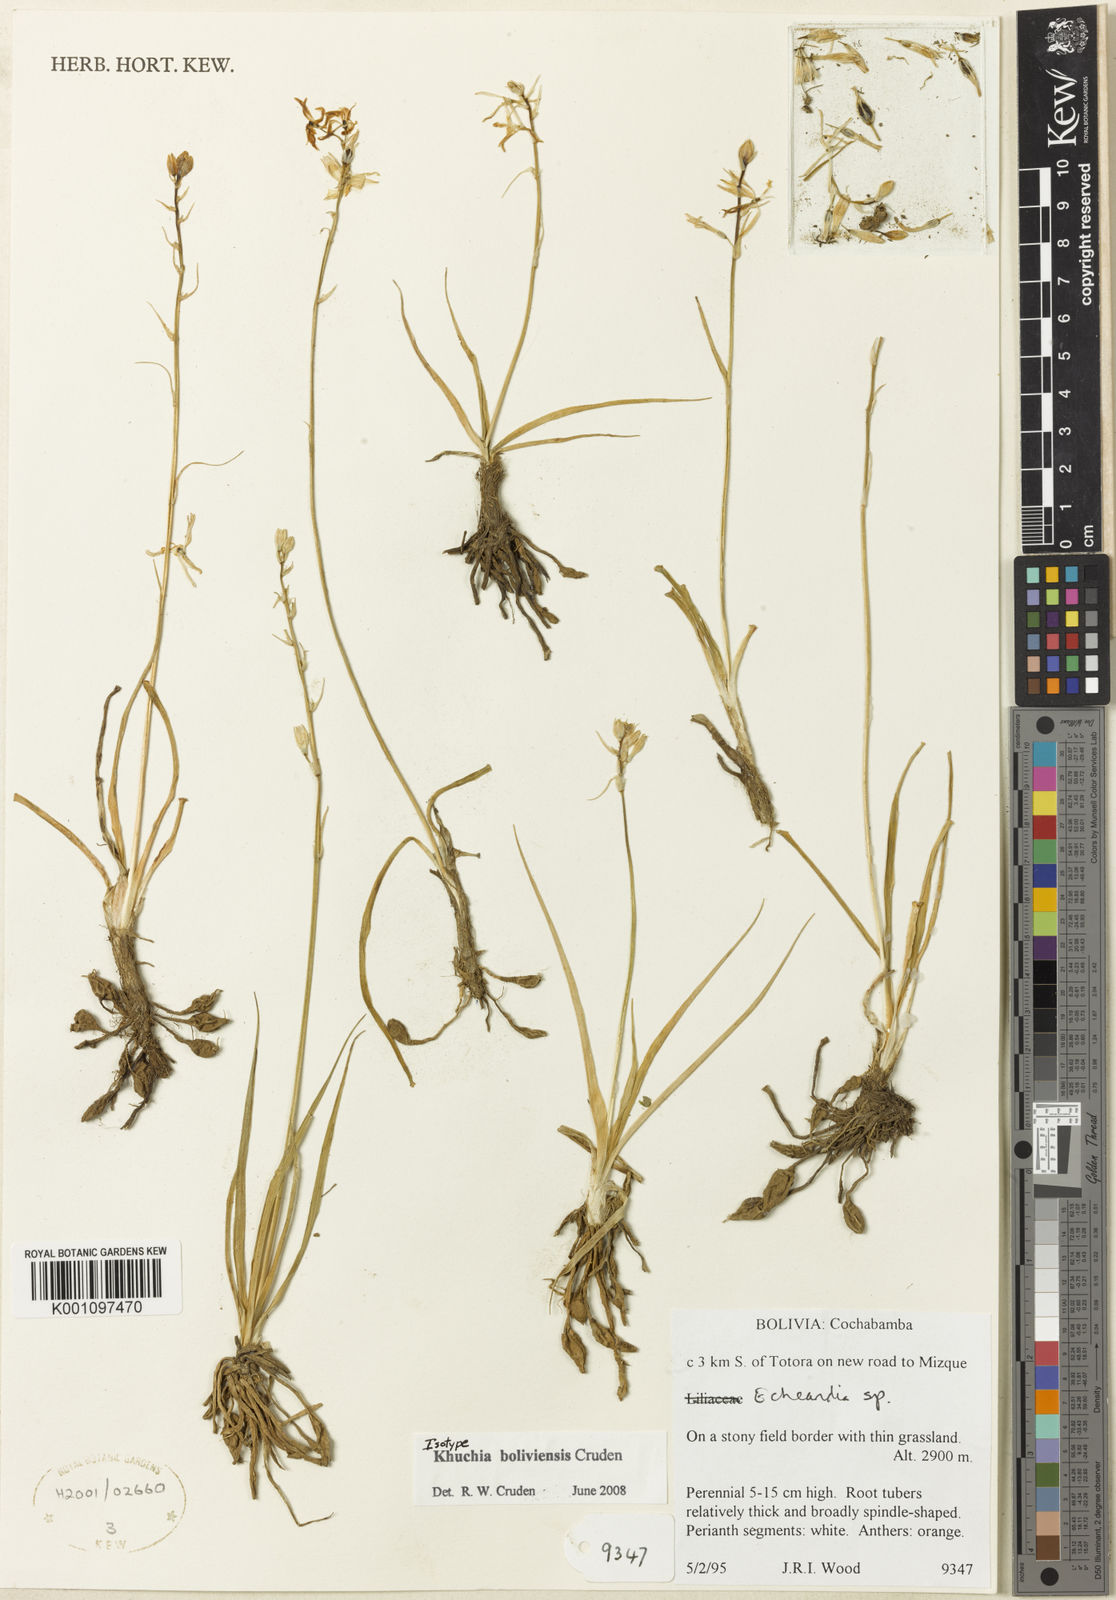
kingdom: Plantae
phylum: Tracheophyta
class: Liliopsida
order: Asparagales
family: Asparagaceae
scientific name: Asparagaceae
